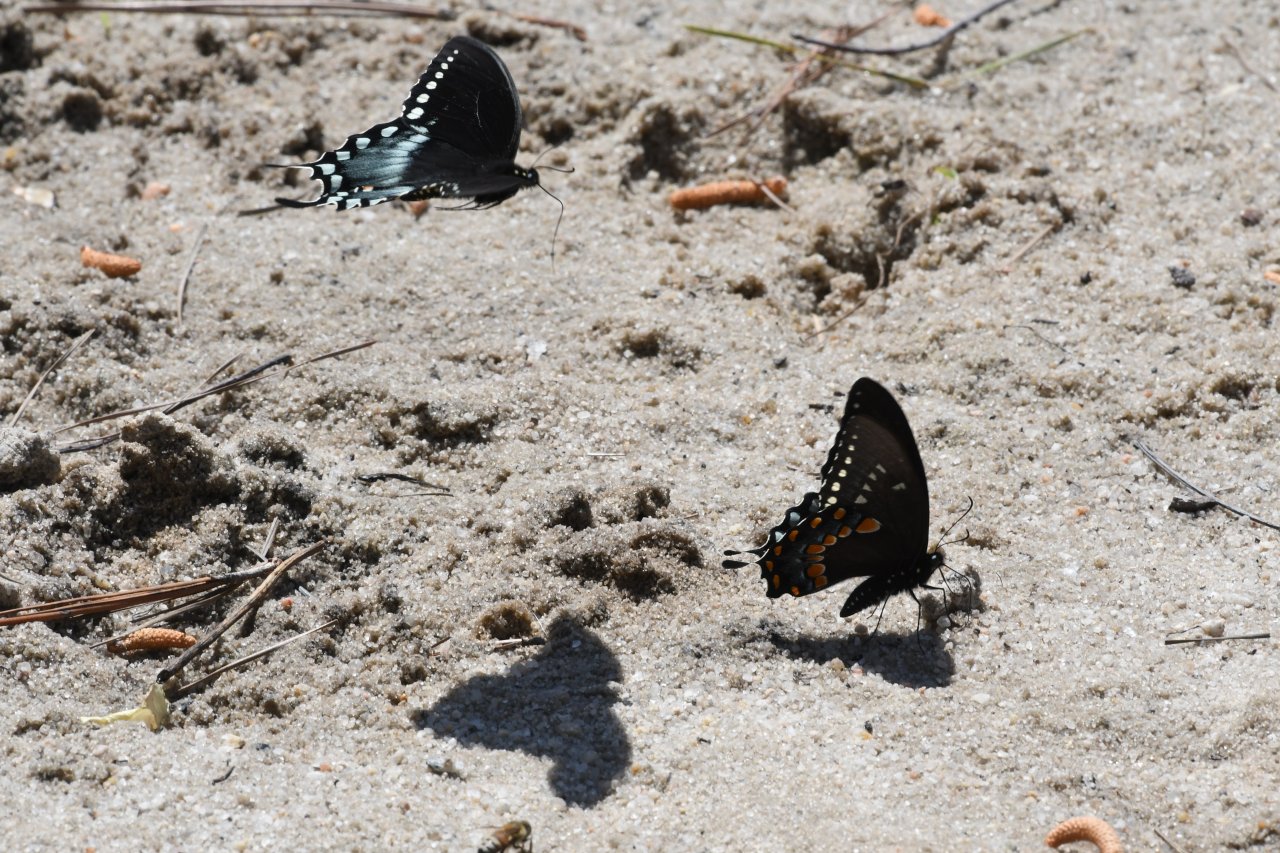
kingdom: Animalia
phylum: Arthropoda
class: Insecta
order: Lepidoptera
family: Papilionidae
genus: Papilio
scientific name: Papilio
